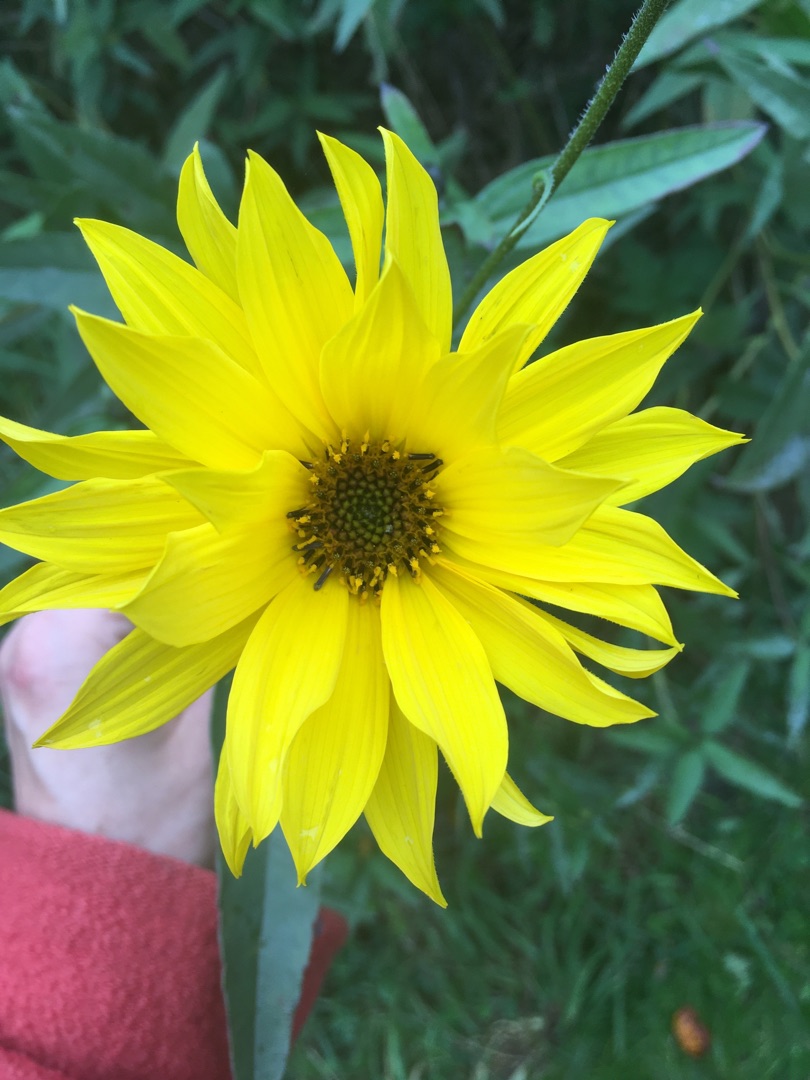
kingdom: Plantae
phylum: Tracheophyta
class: Magnoliopsida
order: Asterales
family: Asteraceae
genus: Helianthus
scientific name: Helianthus tuberosus
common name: Jordskok
